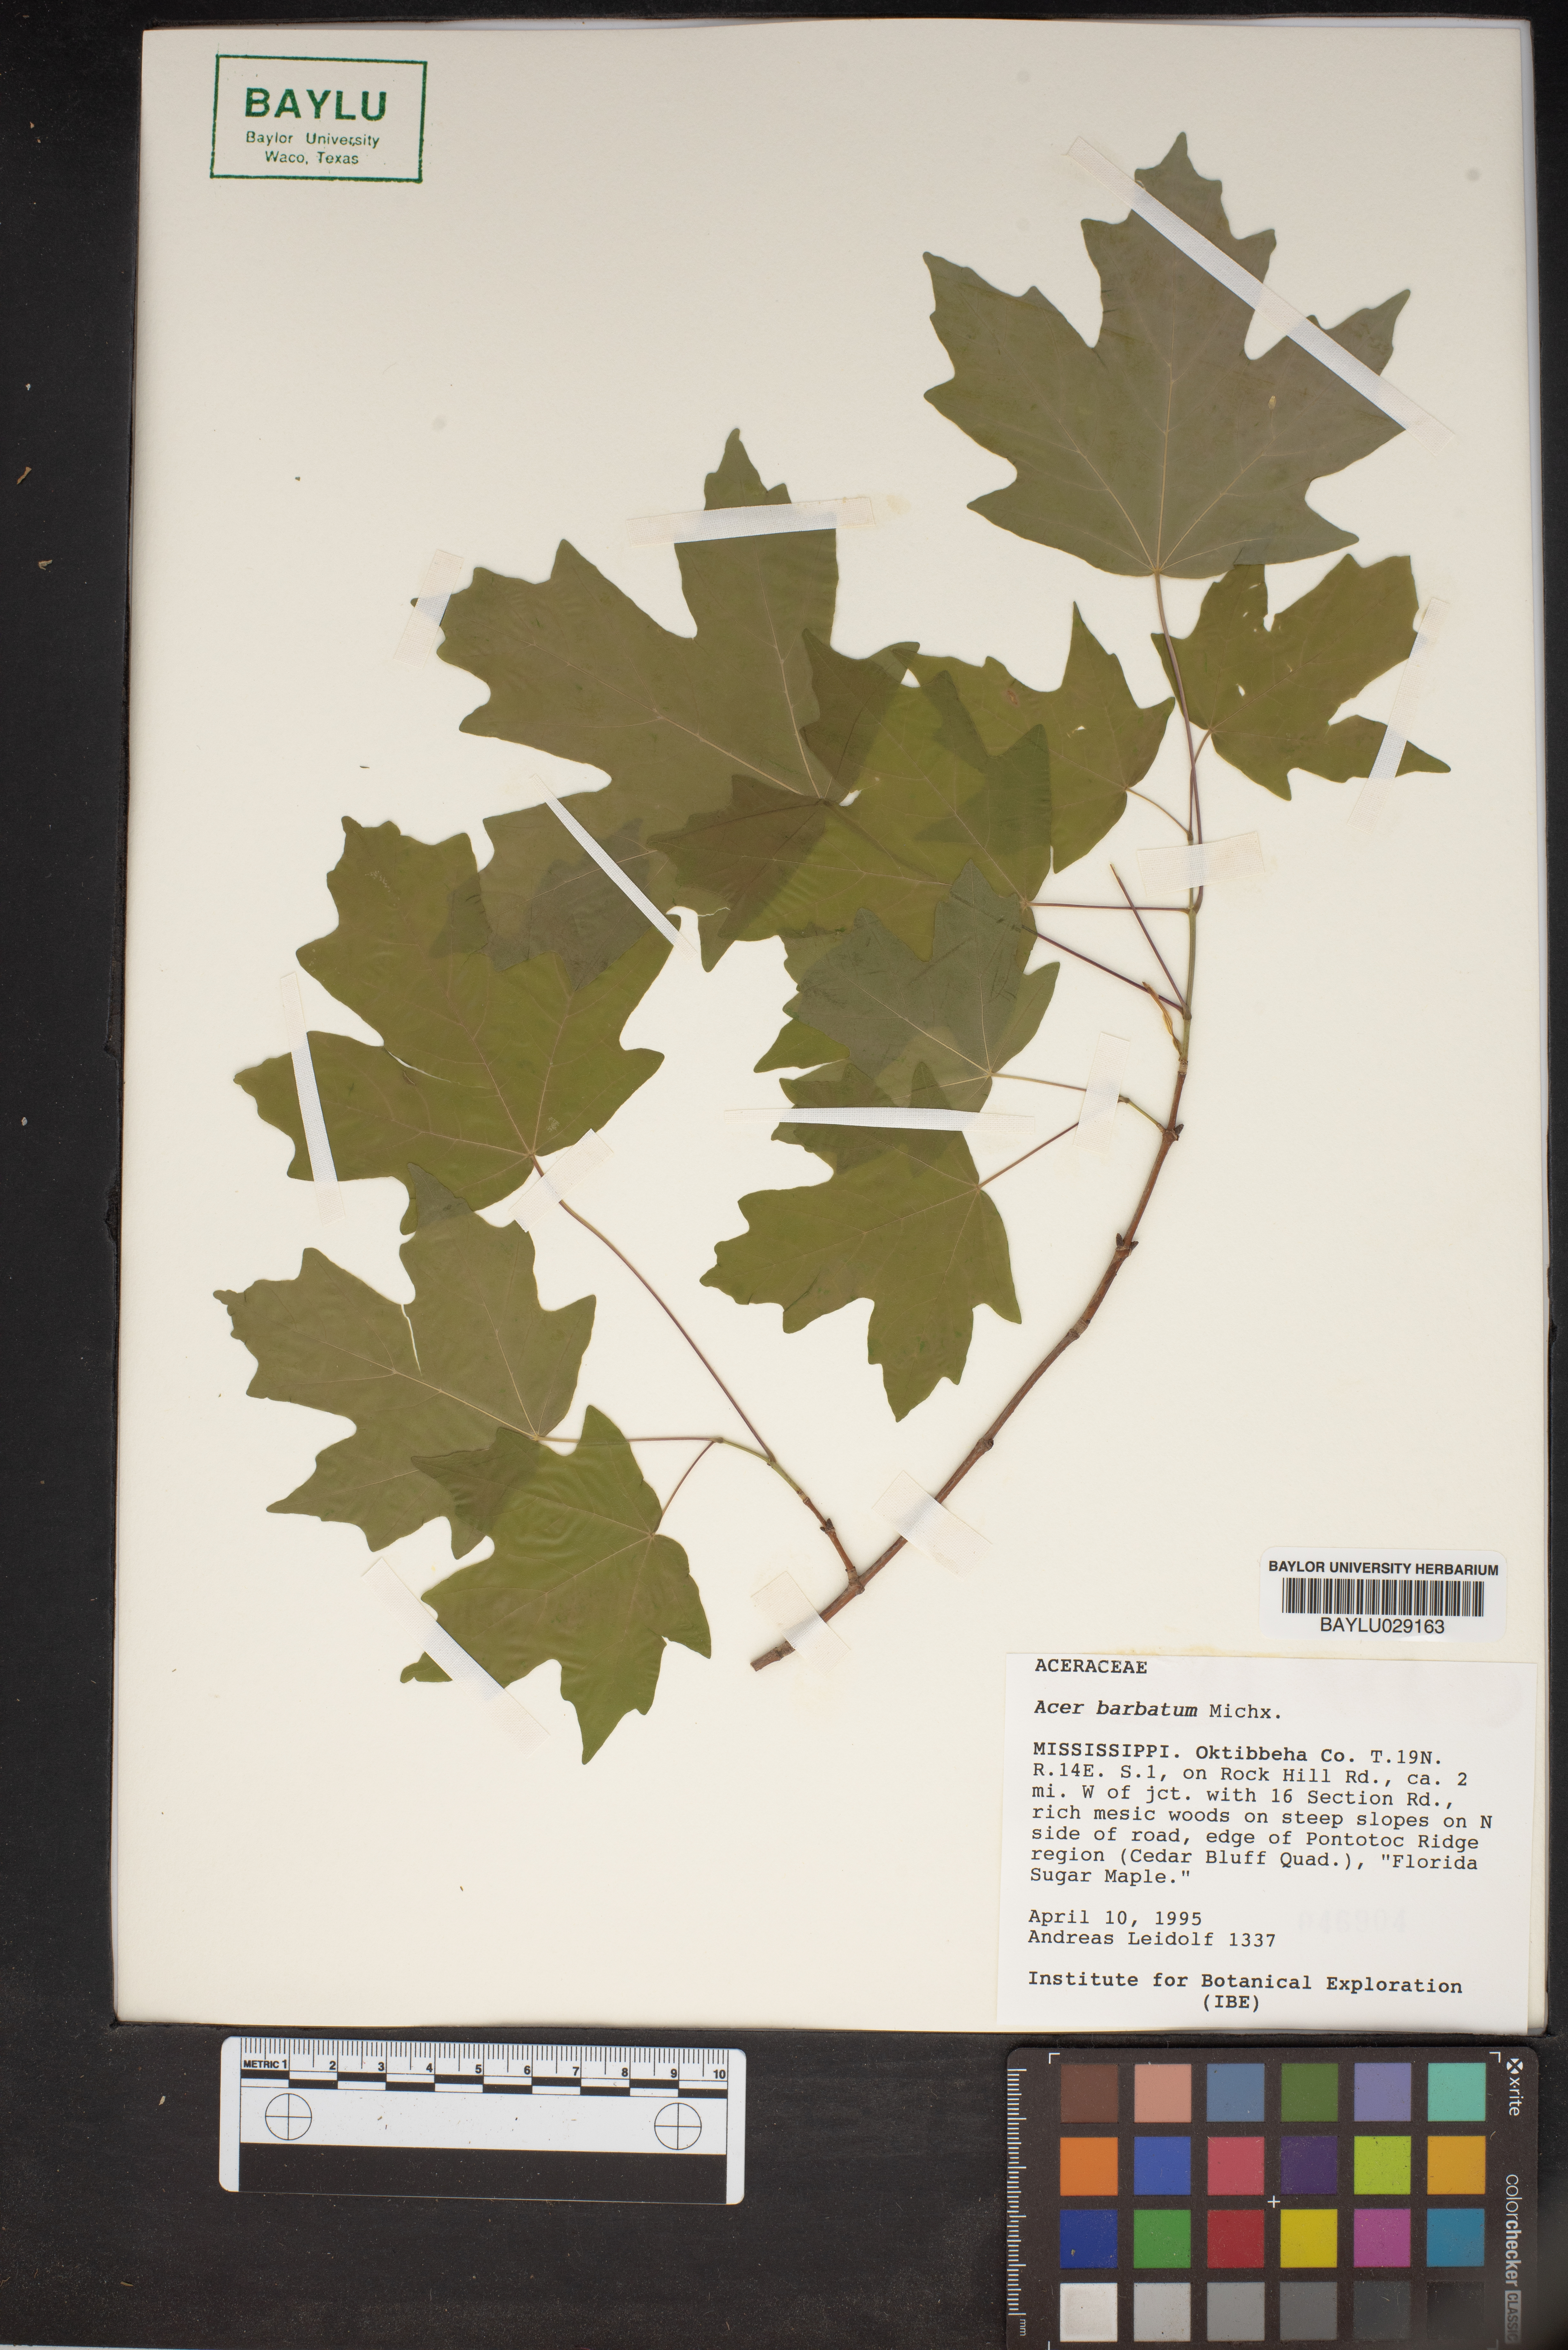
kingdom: Plantae
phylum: Tracheophyta
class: Magnoliopsida
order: Sapindales
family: Sapindaceae
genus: Acer
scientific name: Acer barbatum
